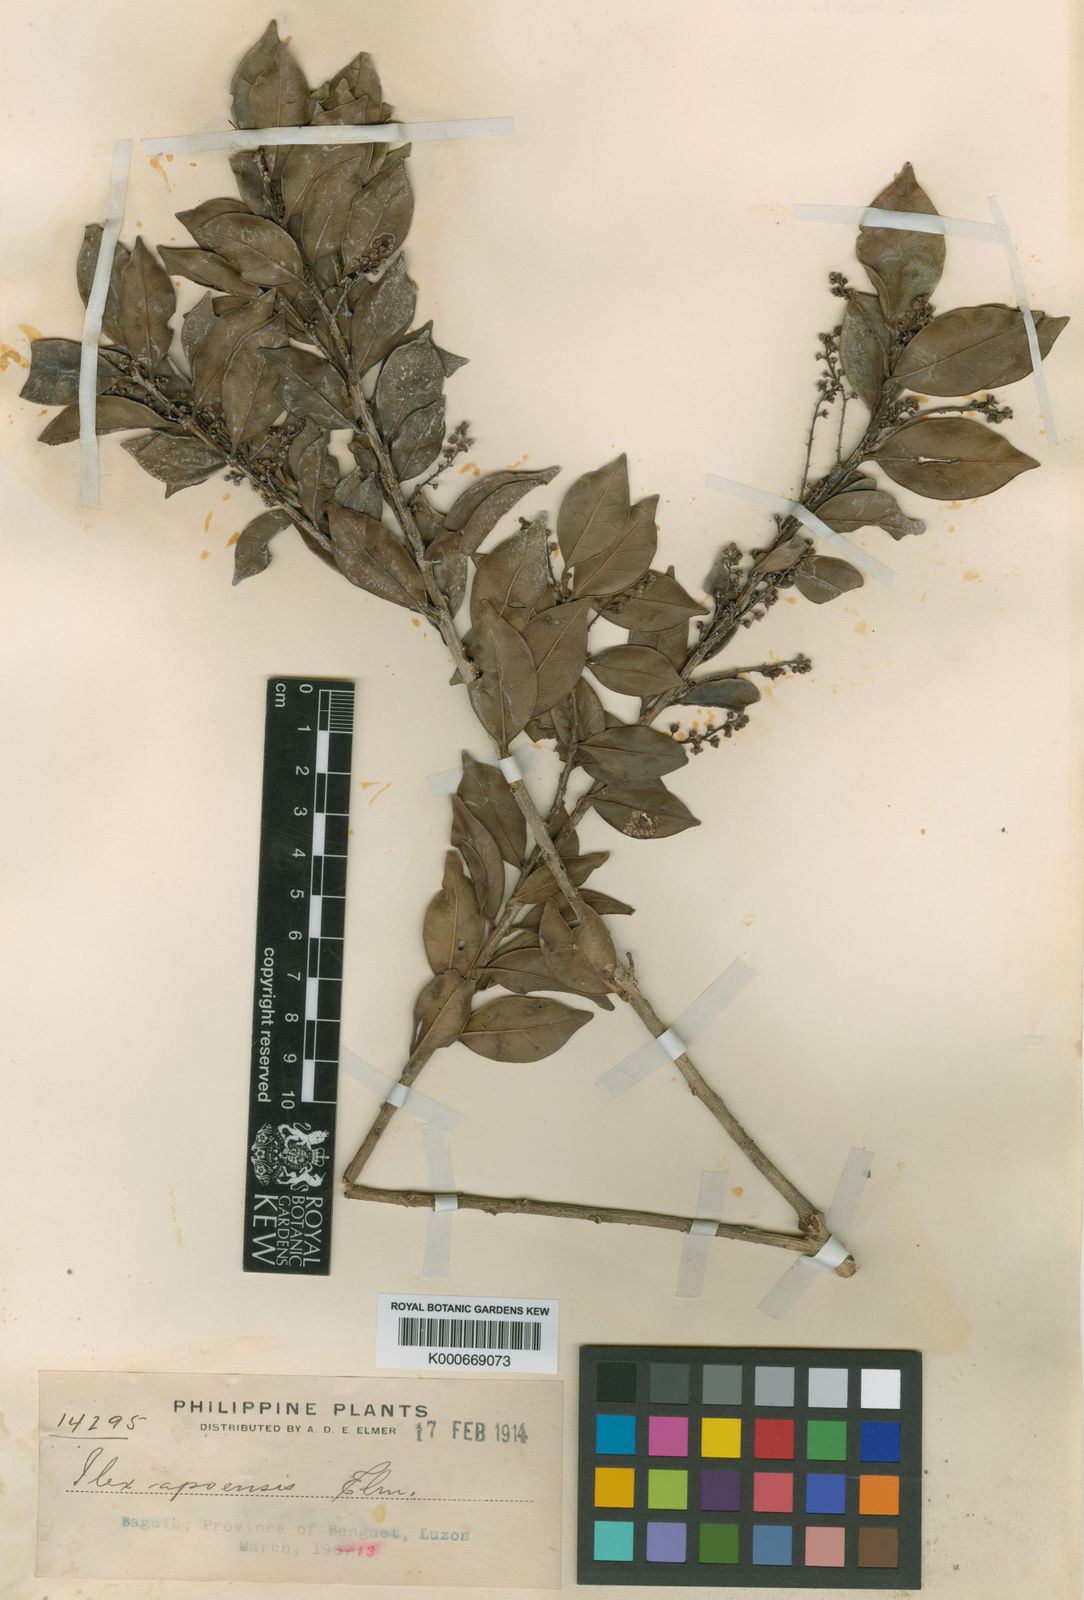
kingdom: Plantae
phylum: Tracheophyta
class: Magnoliopsida
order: Aquifoliales
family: Aquifoliaceae
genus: Ilex
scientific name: Ilex malaccensis
